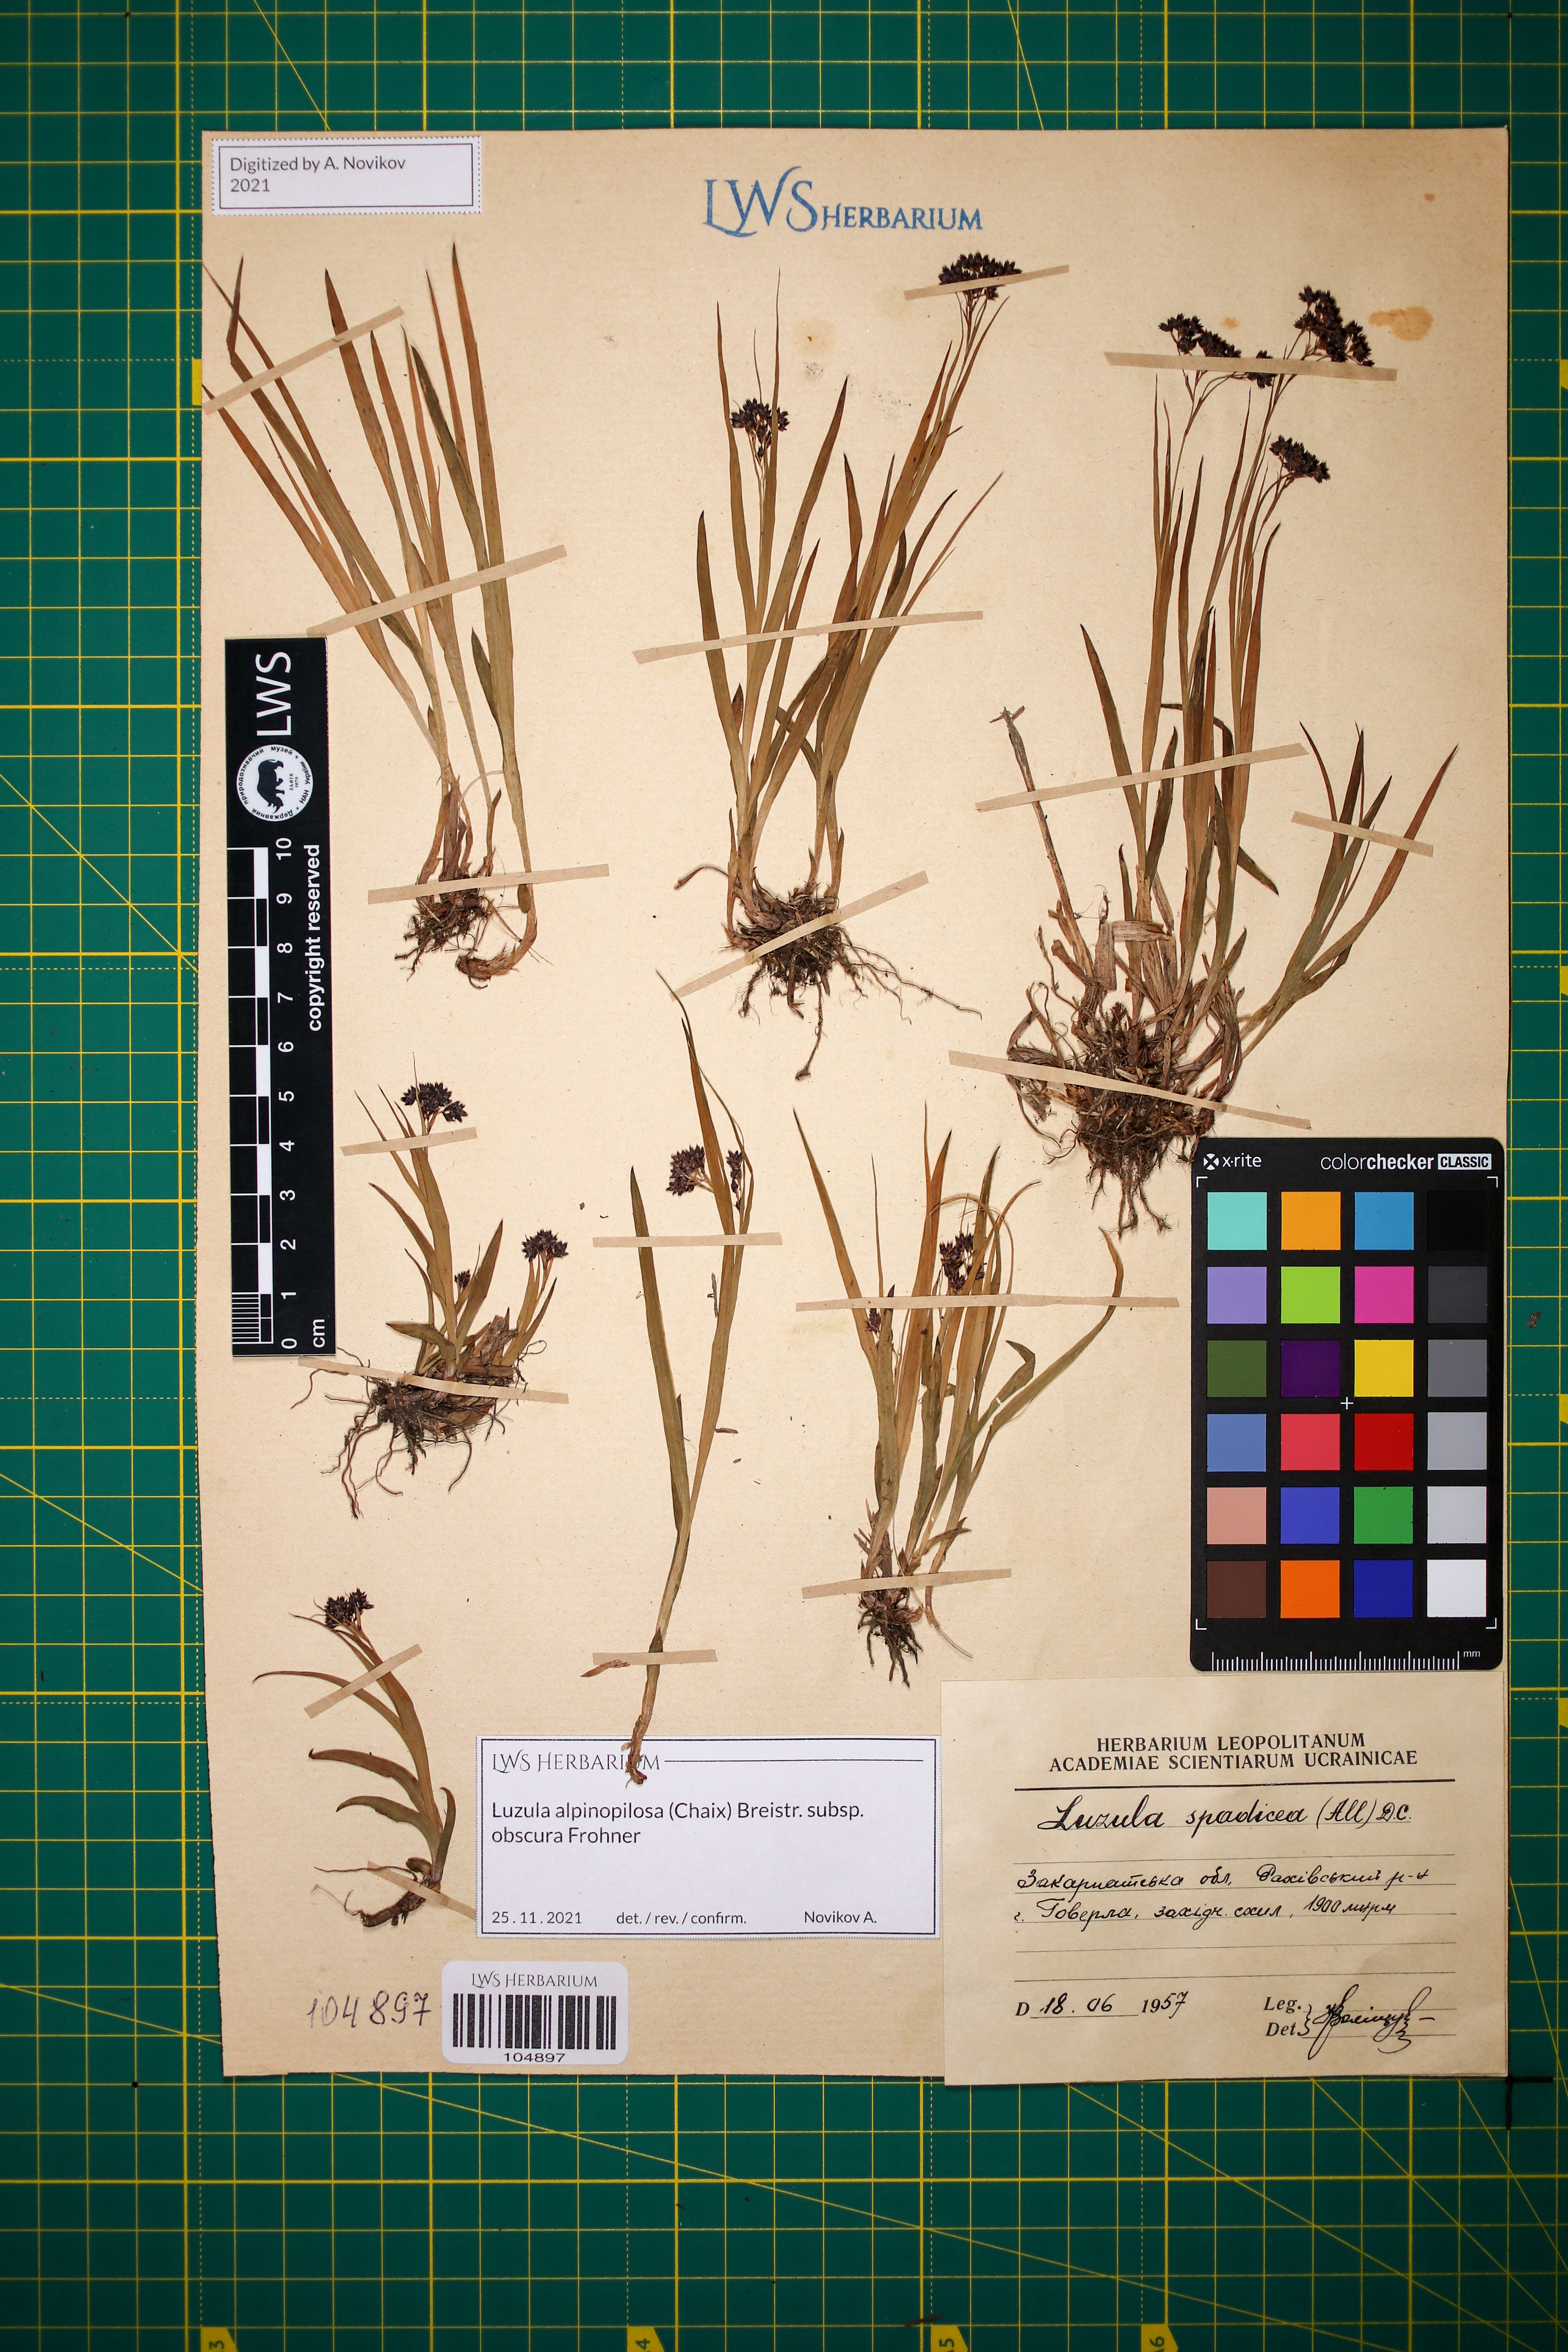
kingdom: Plantae
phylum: Tracheophyta
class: Liliopsida
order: Poales
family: Juncaceae
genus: Luzula
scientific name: Luzula alpinopilosa
